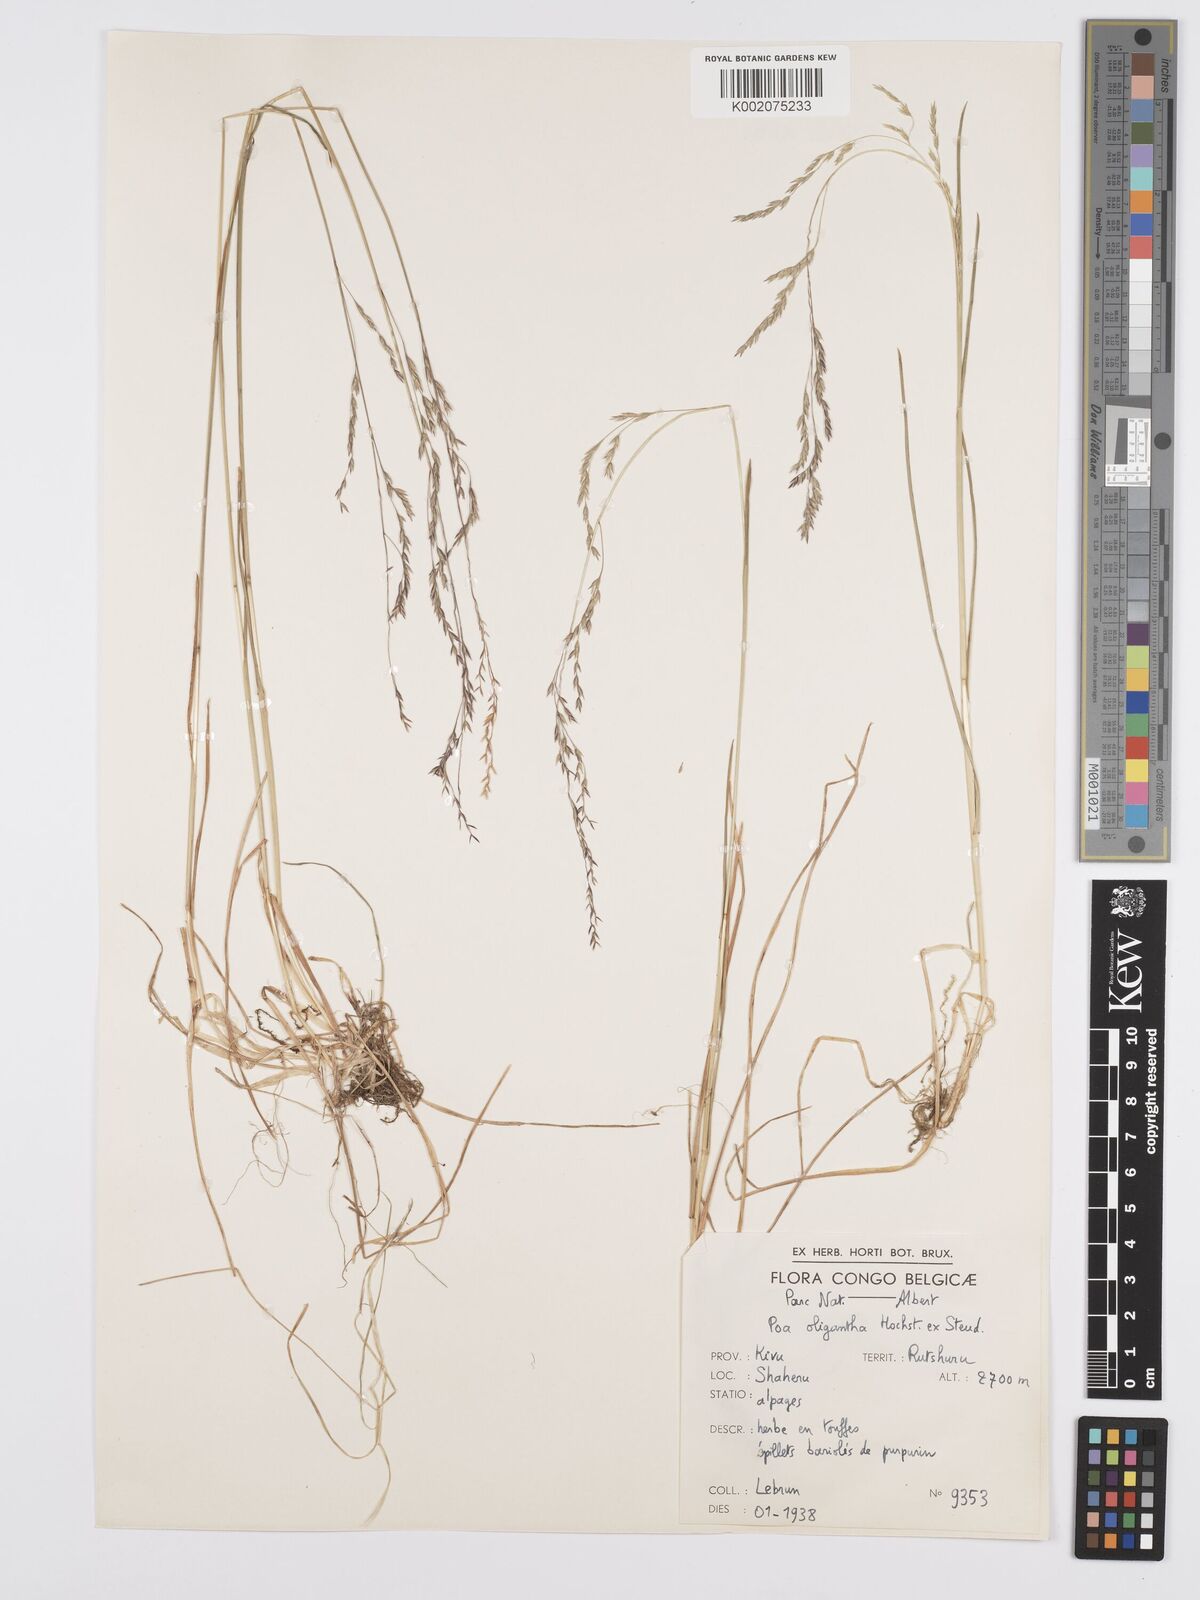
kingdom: Plantae
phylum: Tracheophyta
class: Liliopsida
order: Poales
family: Poaceae
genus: Poa
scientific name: Poa schimperiana
